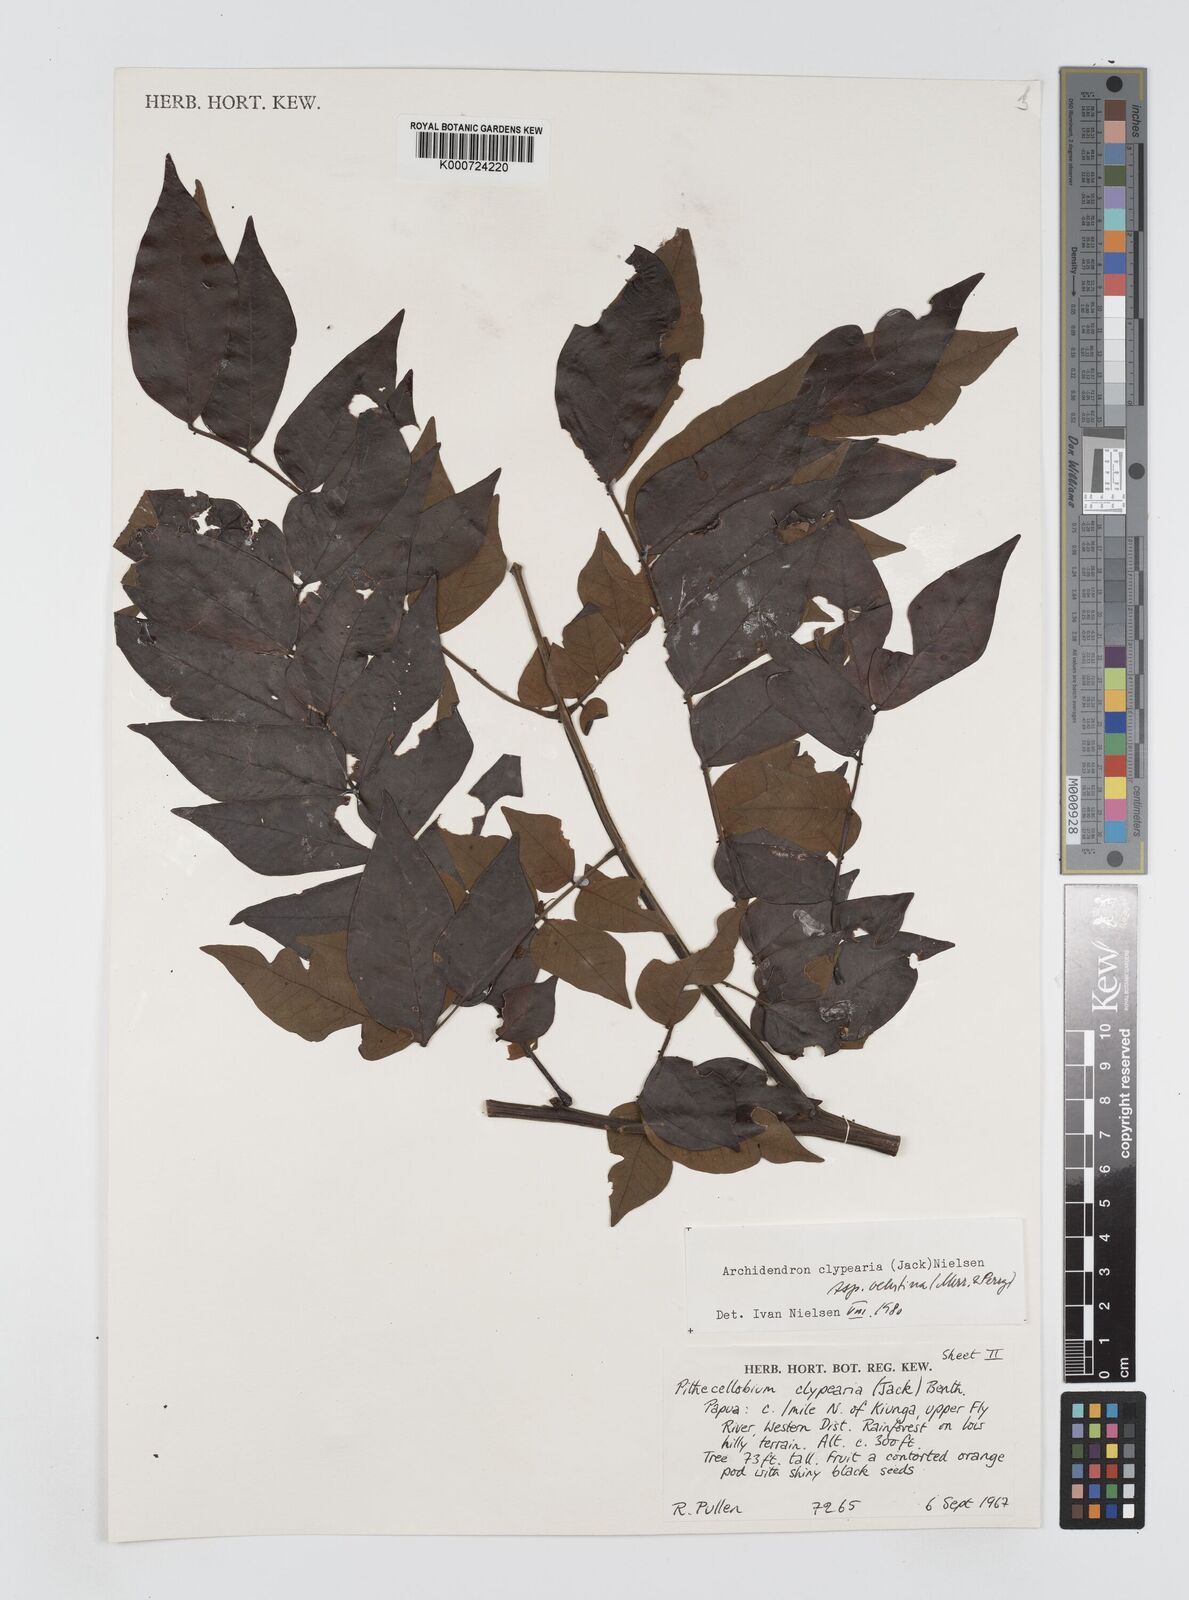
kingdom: Plantae
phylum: Tracheophyta
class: Magnoliopsida
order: Fabales
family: Fabaceae
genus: Archidendron
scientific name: Archidendron clypearia
